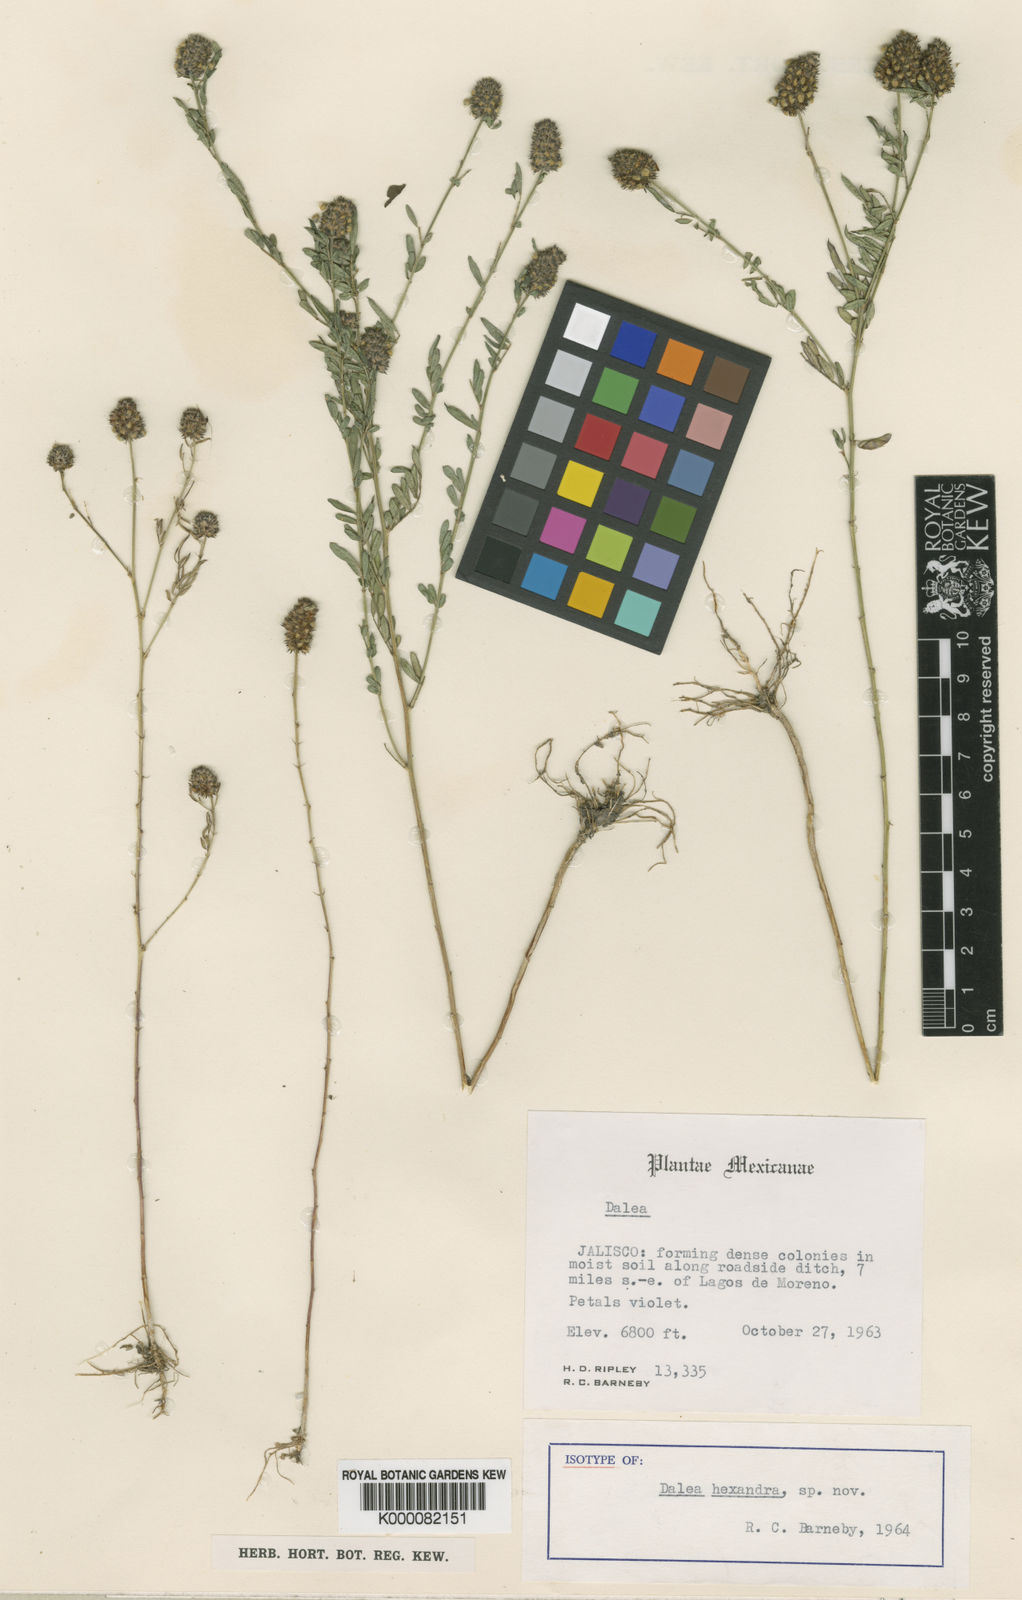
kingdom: Plantae
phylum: Tracheophyta
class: Magnoliopsida
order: Fabales
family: Fabaceae
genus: Dalea
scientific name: Dalea
